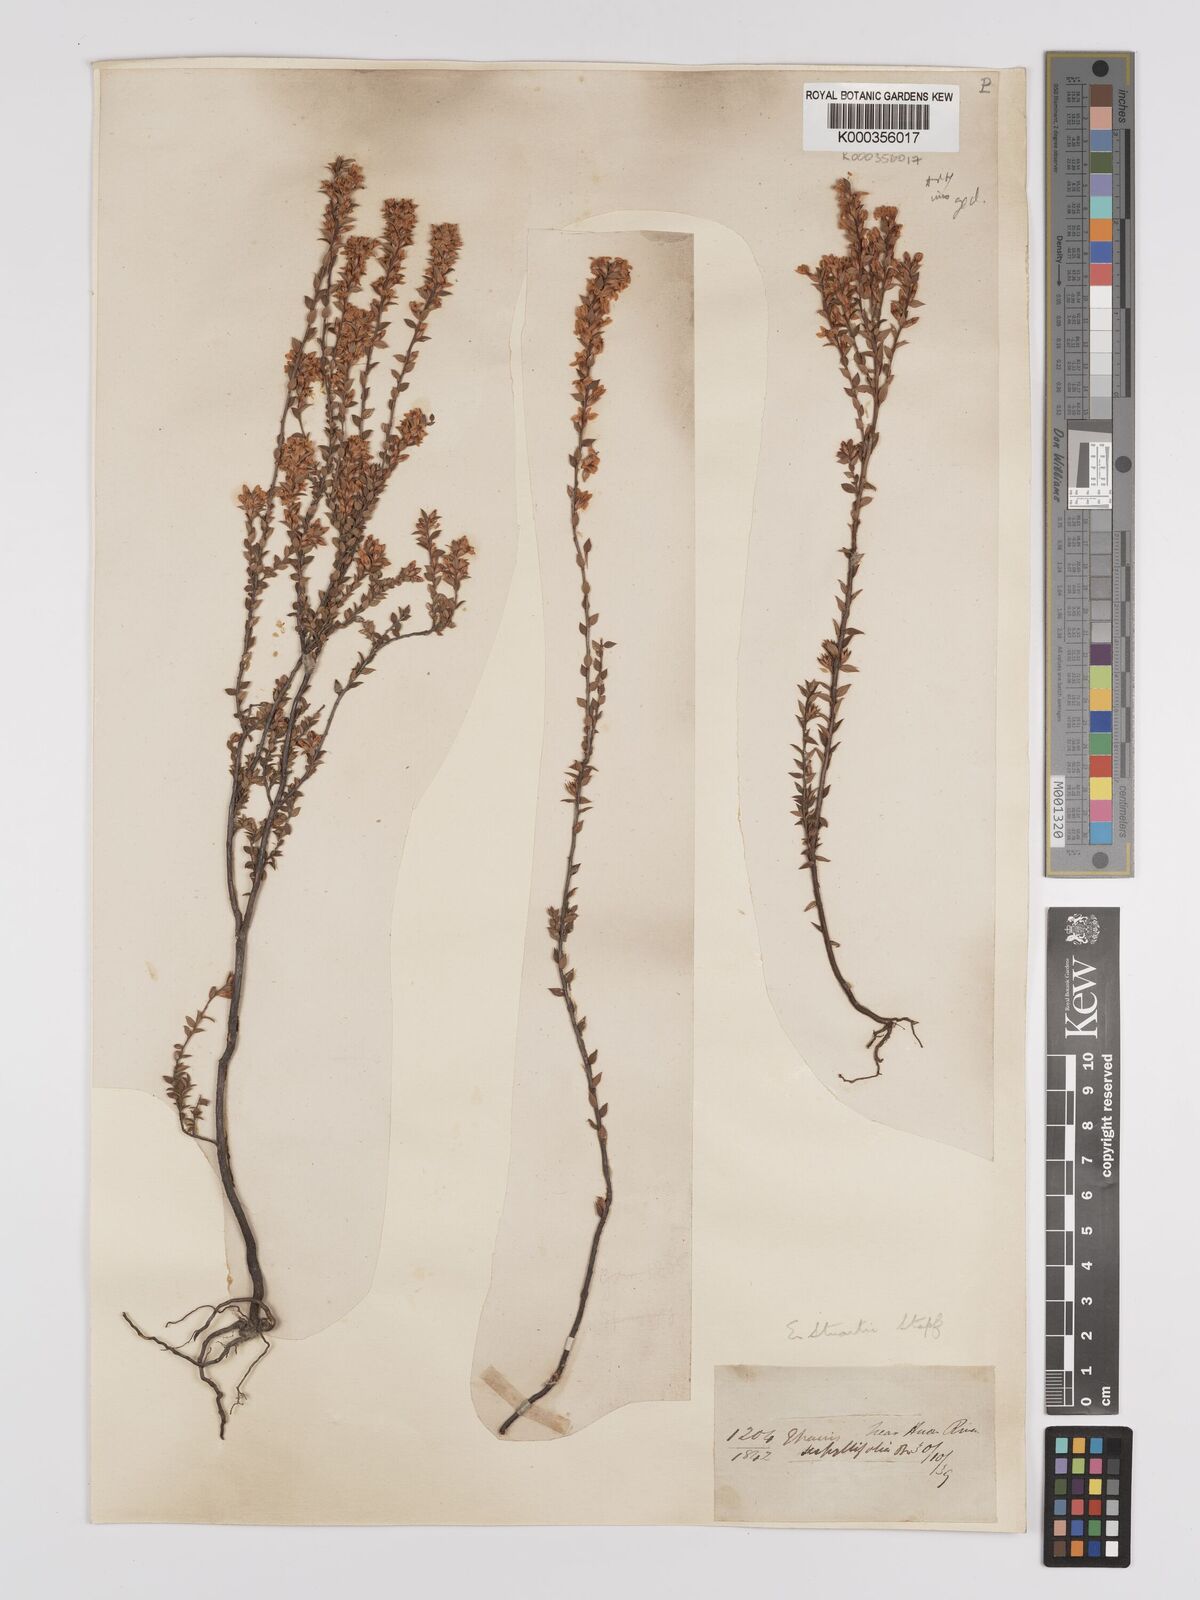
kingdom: Plantae
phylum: Tracheophyta
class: Magnoliopsida
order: Ericales
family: Ericaceae
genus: Epacris
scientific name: Epacris stuartii
